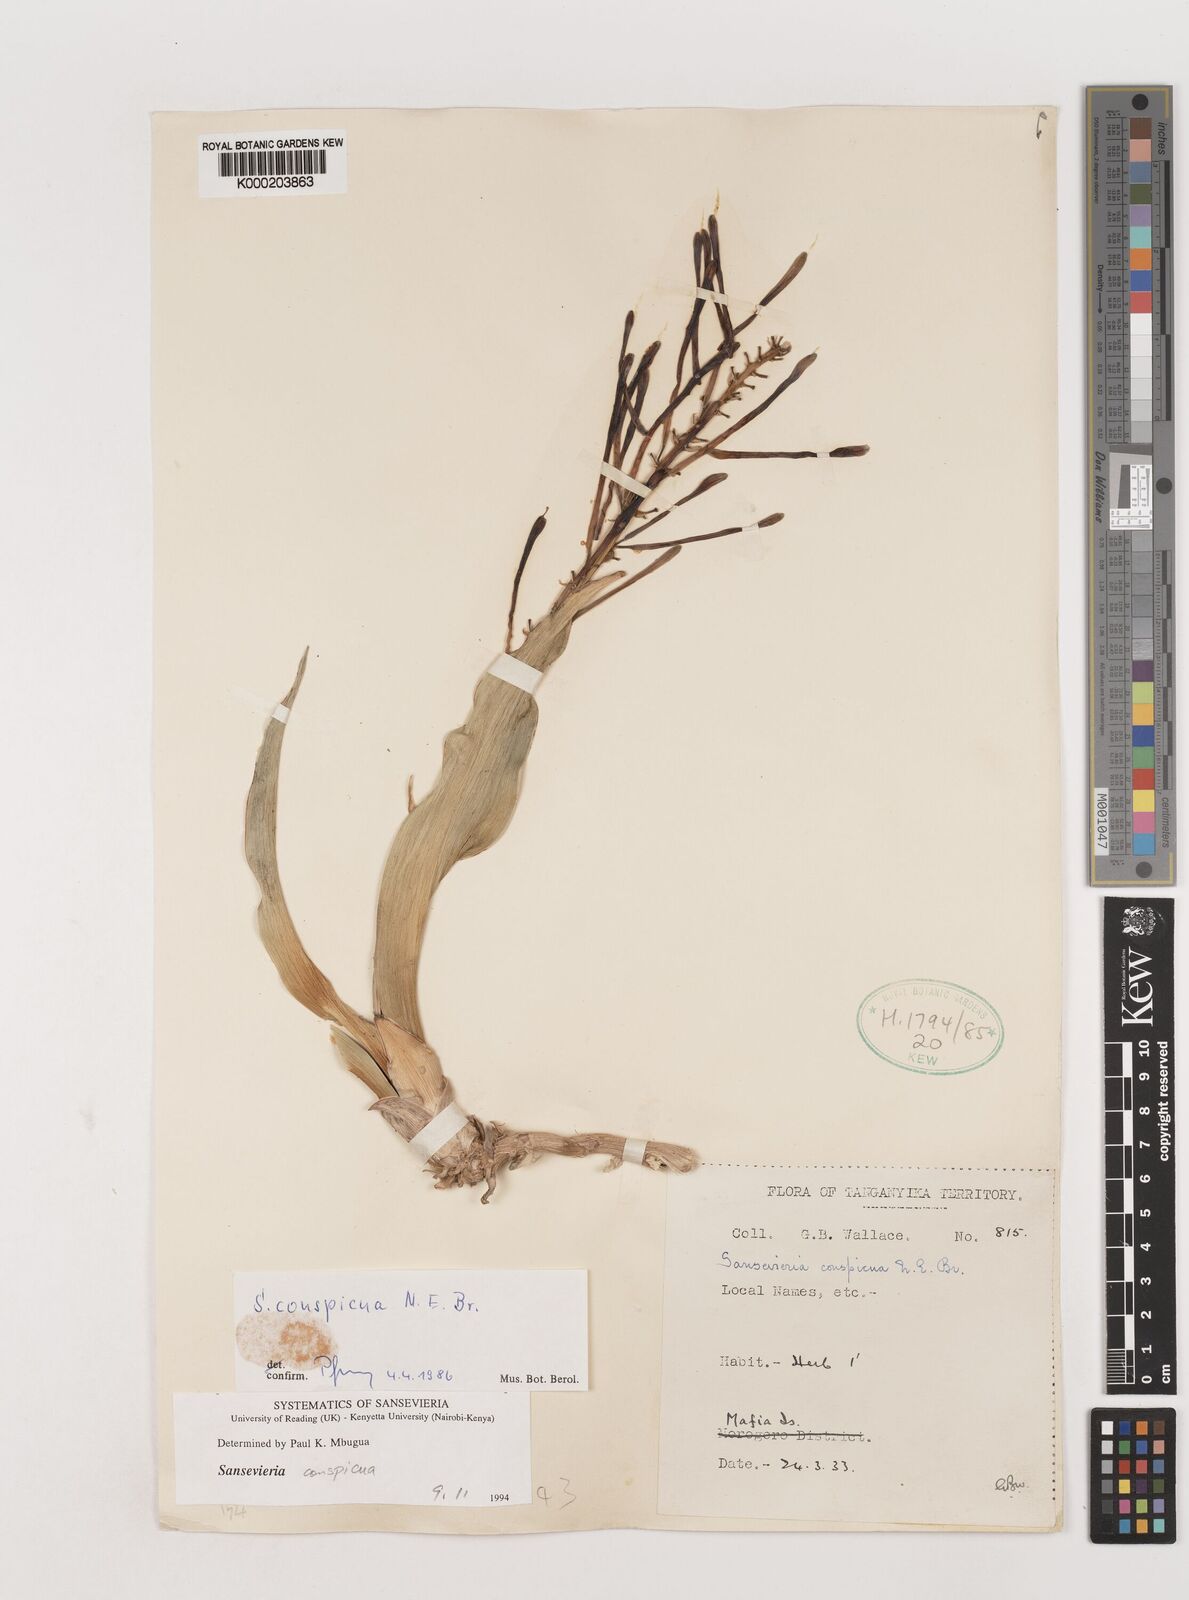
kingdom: Plantae
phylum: Tracheophyta
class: Liliopsida
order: Asparagales
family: Asparagaceae
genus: Dracaena
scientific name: Dracaena conspicua
